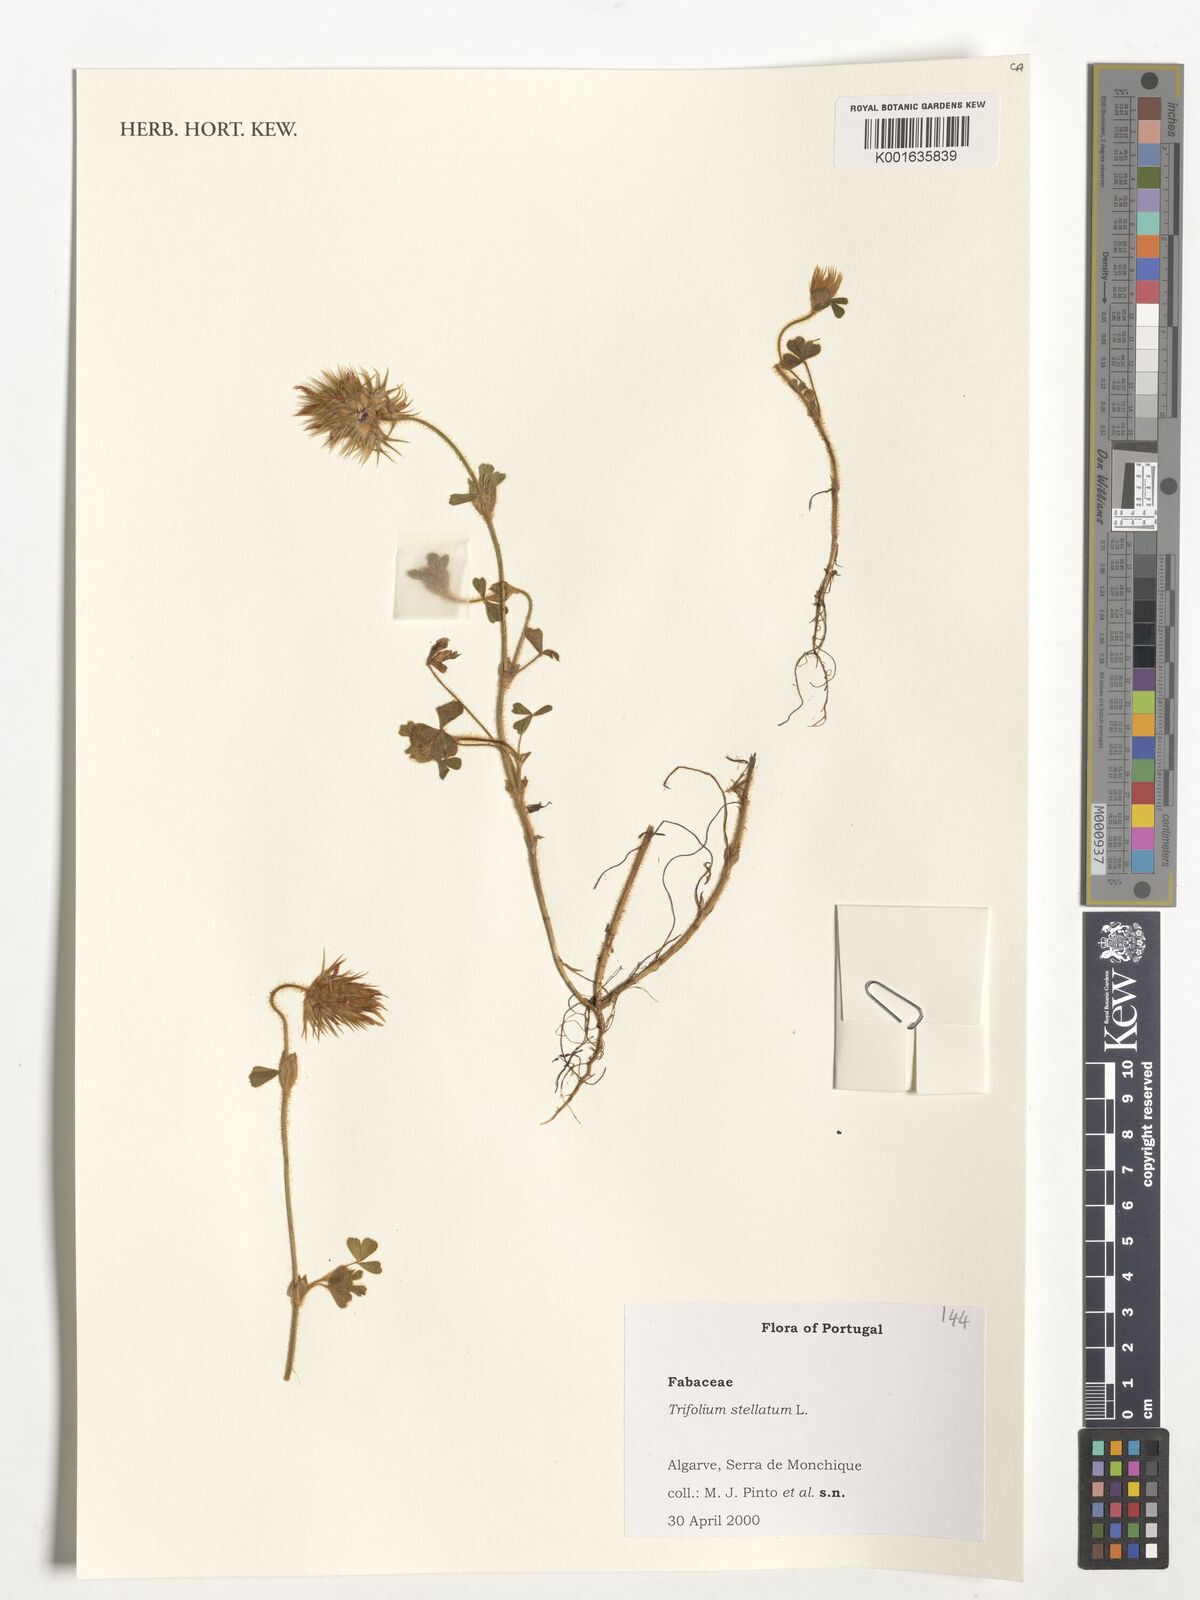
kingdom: Plantae
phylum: Tracheophyta
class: Magnoliopsida
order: Fabales
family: Fabaceae
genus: Trifolium
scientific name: Trifolium stellatum
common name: Starry clover
